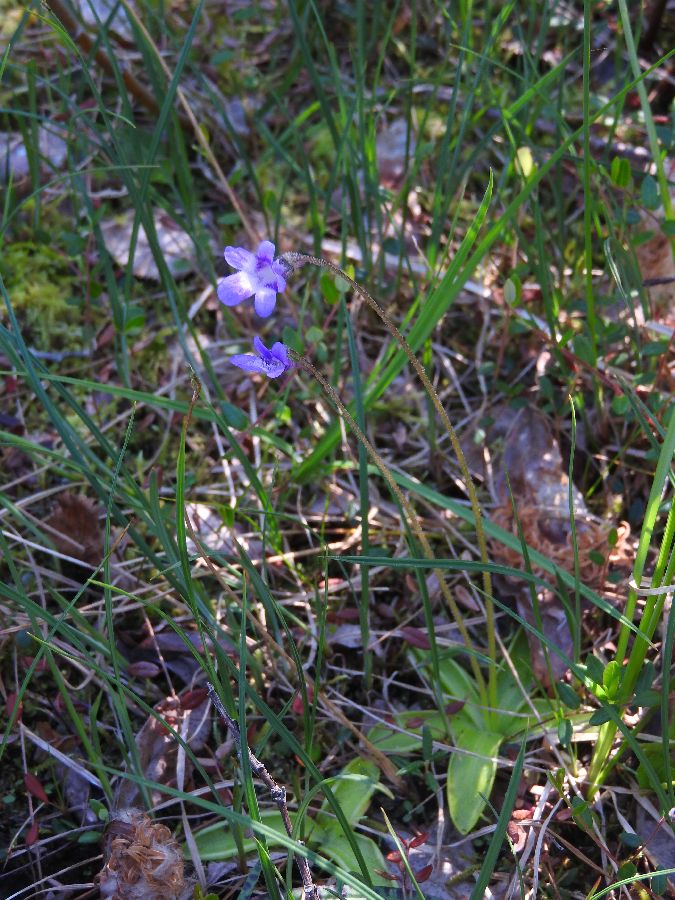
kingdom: Plantae
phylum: Tracheophyta
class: Magnoliopsida
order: Lamiales
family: Lentibulariaceae
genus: Pinguicula
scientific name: Pinguicula vulgaris
